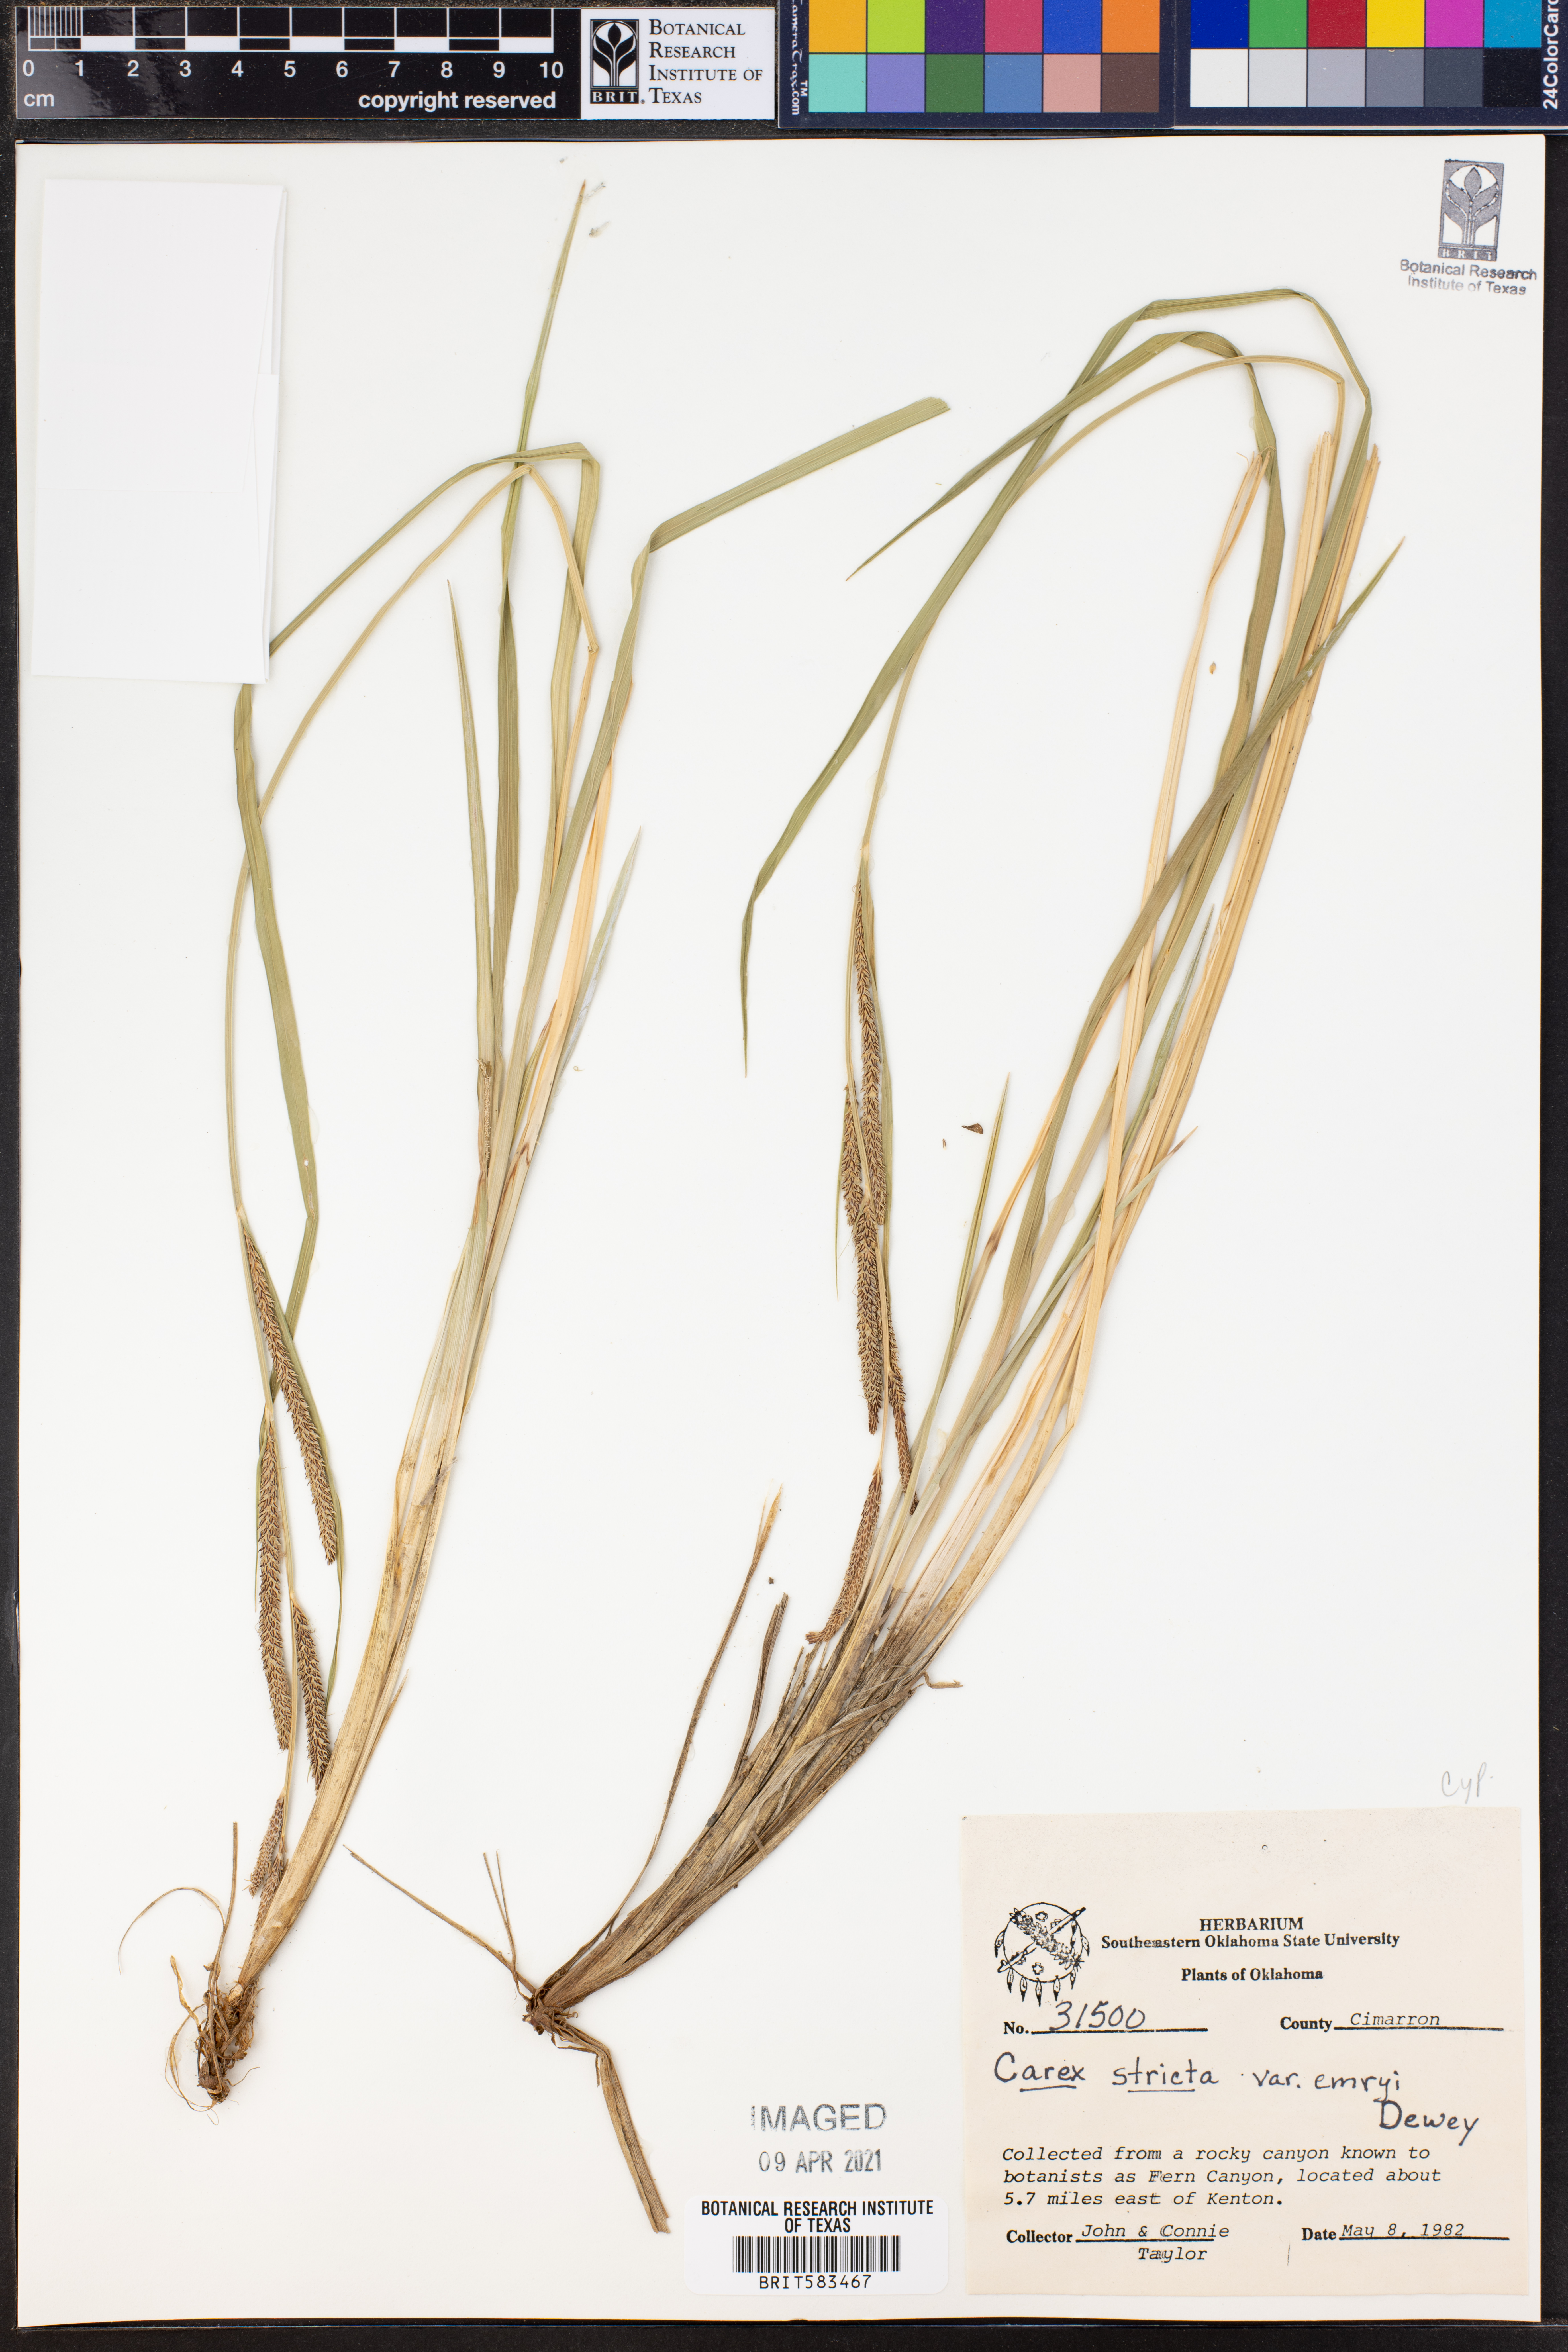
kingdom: Plantae
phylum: Tracheophyta
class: Liliopsida
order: Poales
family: Cyperaceae
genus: Carex
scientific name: Carex stricta
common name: Hummock sedge
